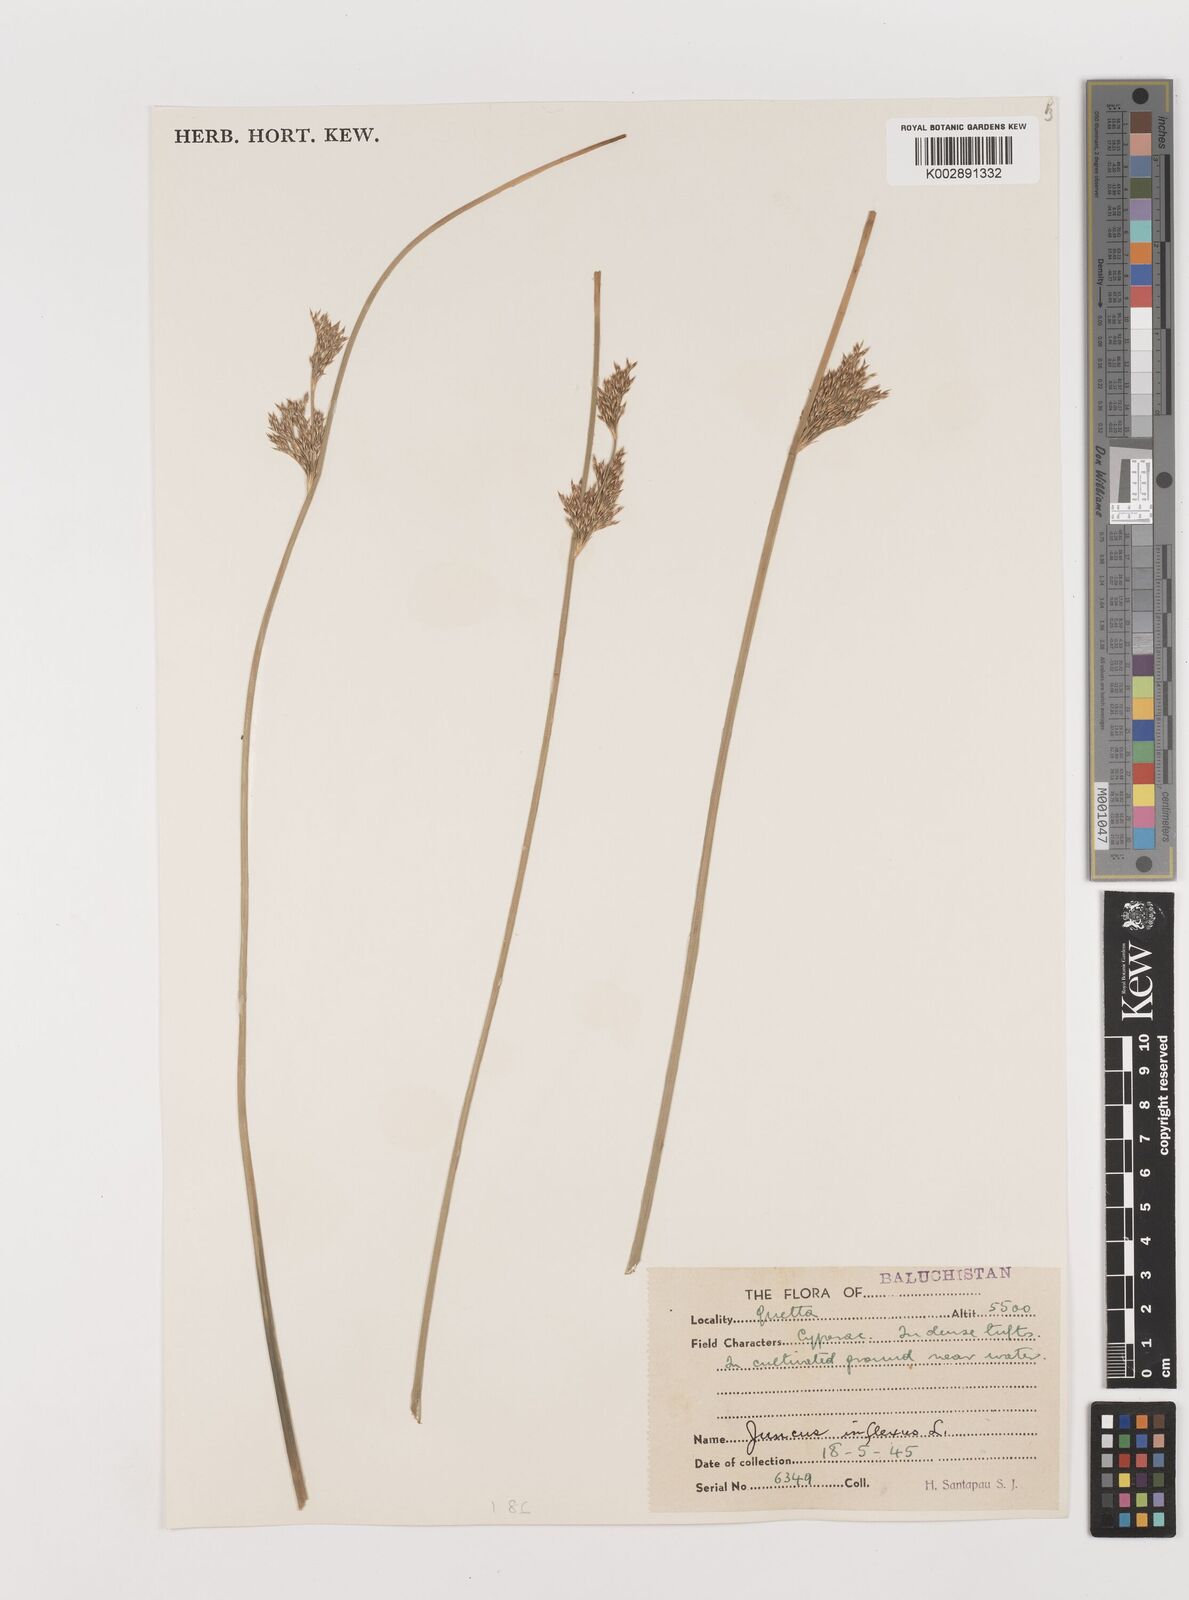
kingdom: Plantae
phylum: Tracheophyta
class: Liliopsida
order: Poales
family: Juncaceae
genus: Juncus
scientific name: Juncus inflexus
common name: Hard rush
